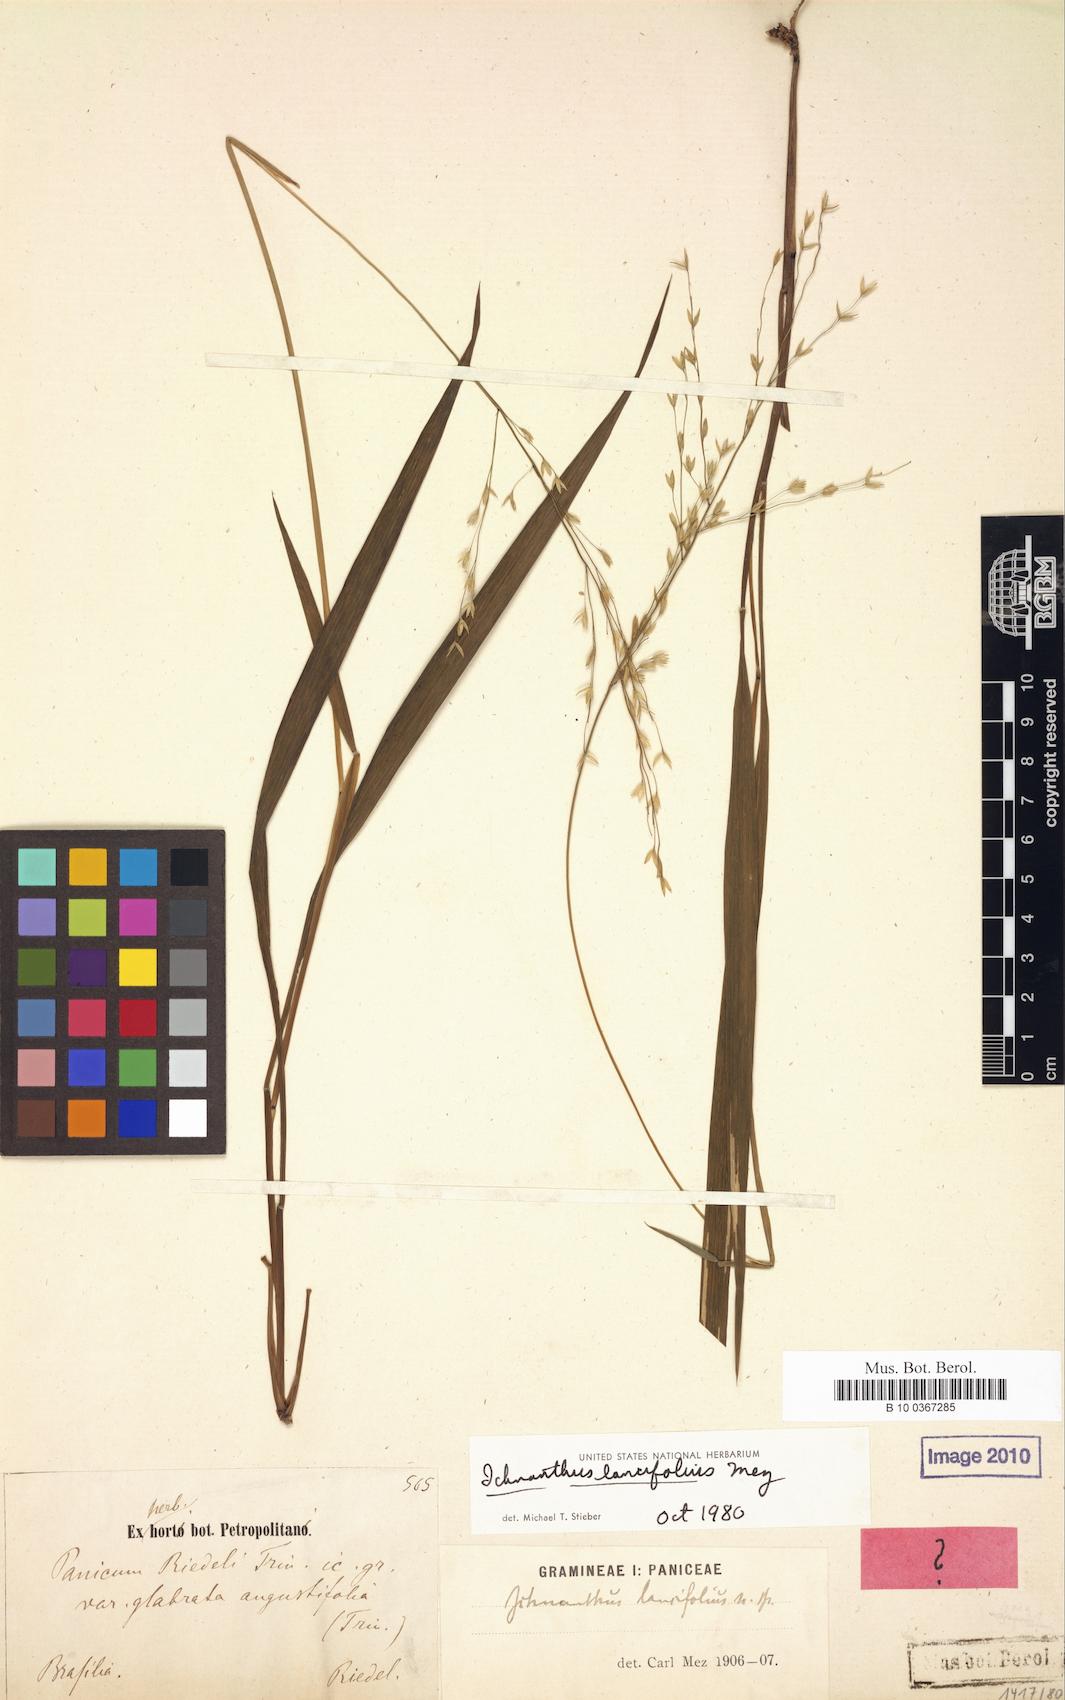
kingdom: Plantae
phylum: Tracheophyta
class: Liliopsida
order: Poales
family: Poaceae
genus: Ichnanthus
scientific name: Ichnanthus riedelii
